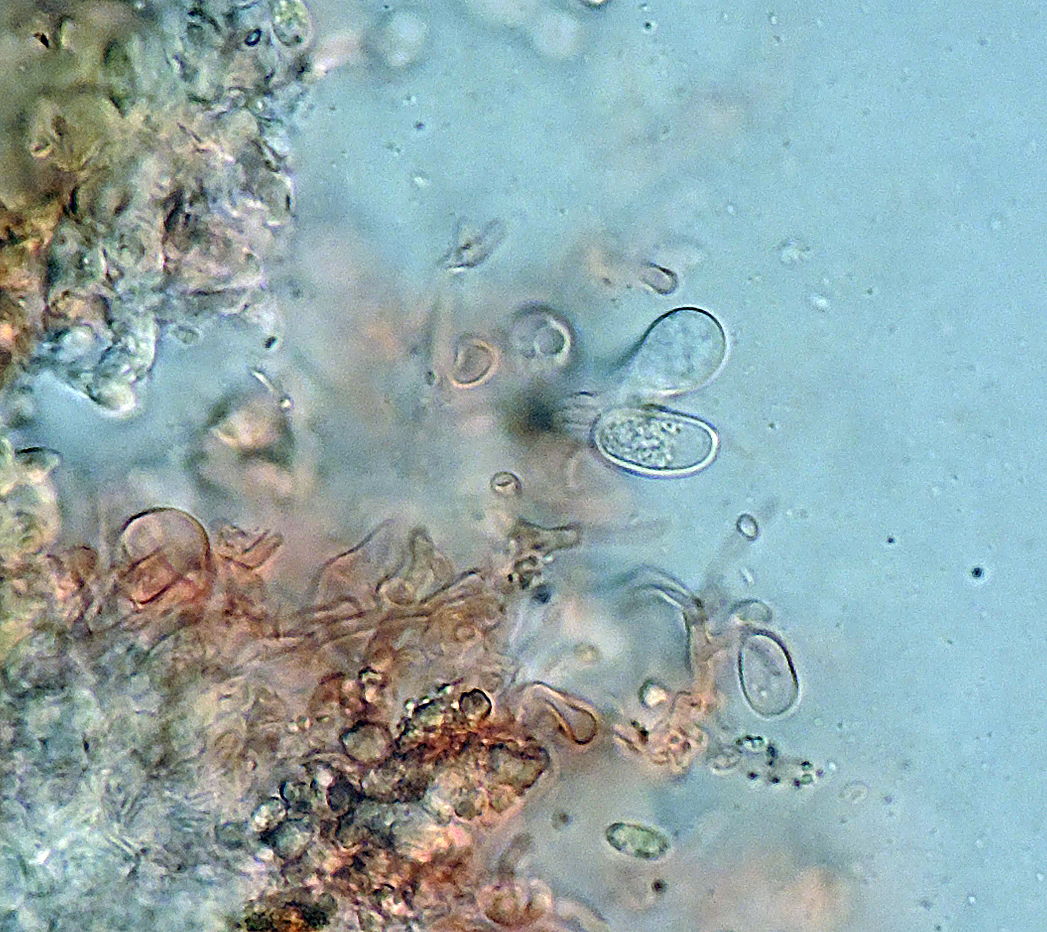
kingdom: Fungi
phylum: Basidiomycota
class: Agaricomycetes
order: Agaricales
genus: Dendrothele
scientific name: Dendrothele pachysterigmata
